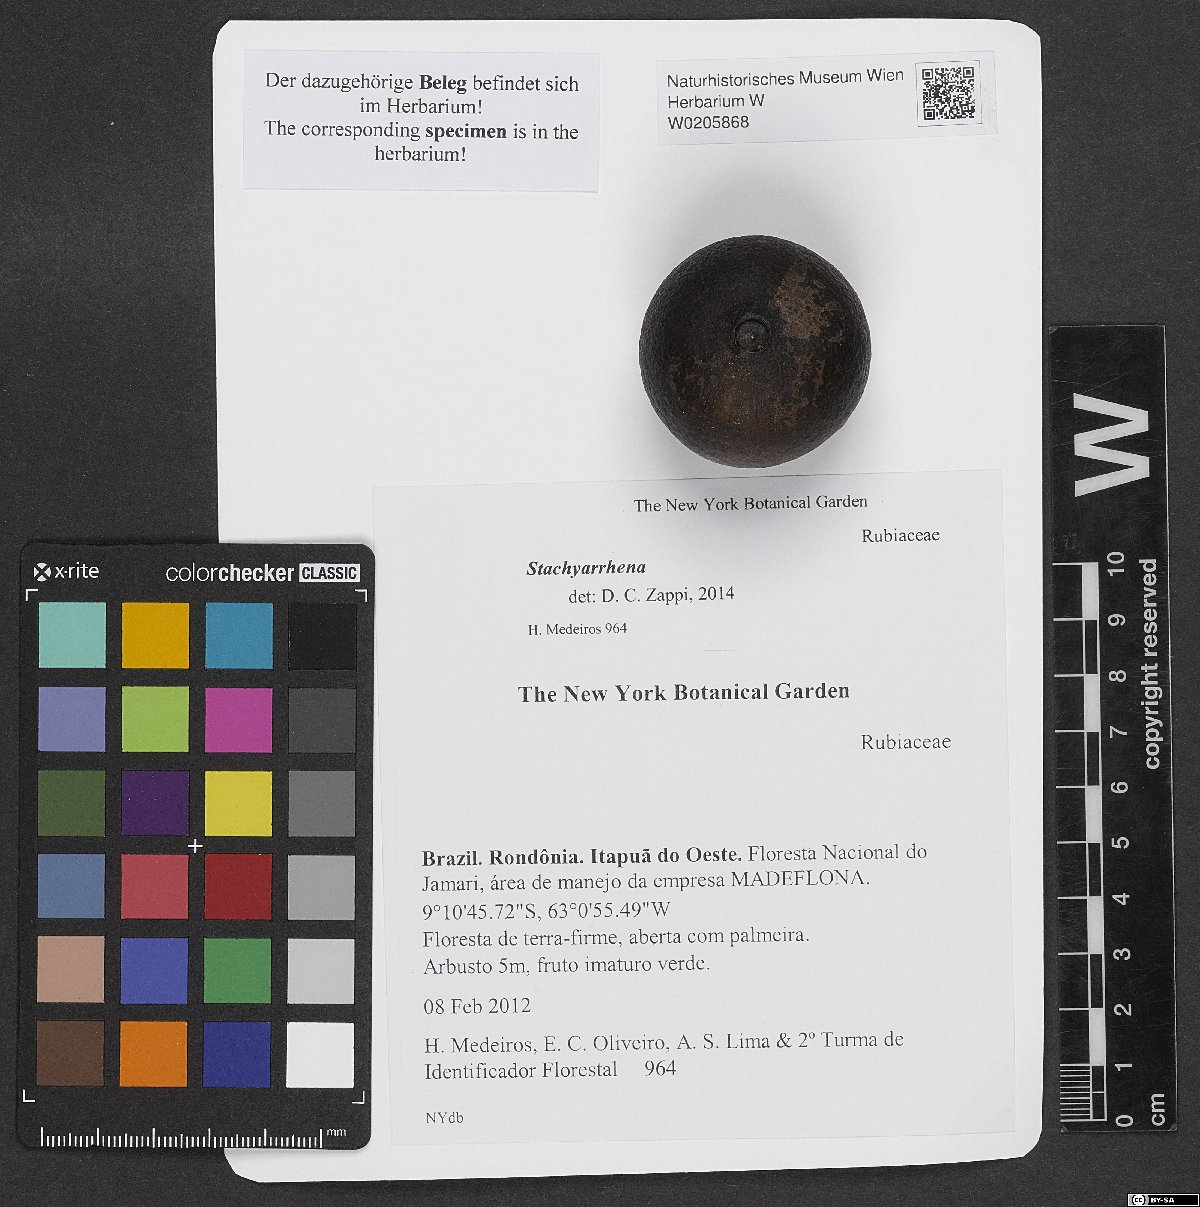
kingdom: Plantae
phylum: Tracheophyta
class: Magnoliopsida
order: Gentianales
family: Rubiaceae
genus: Stachyarrhena
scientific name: Stachyarrhena
